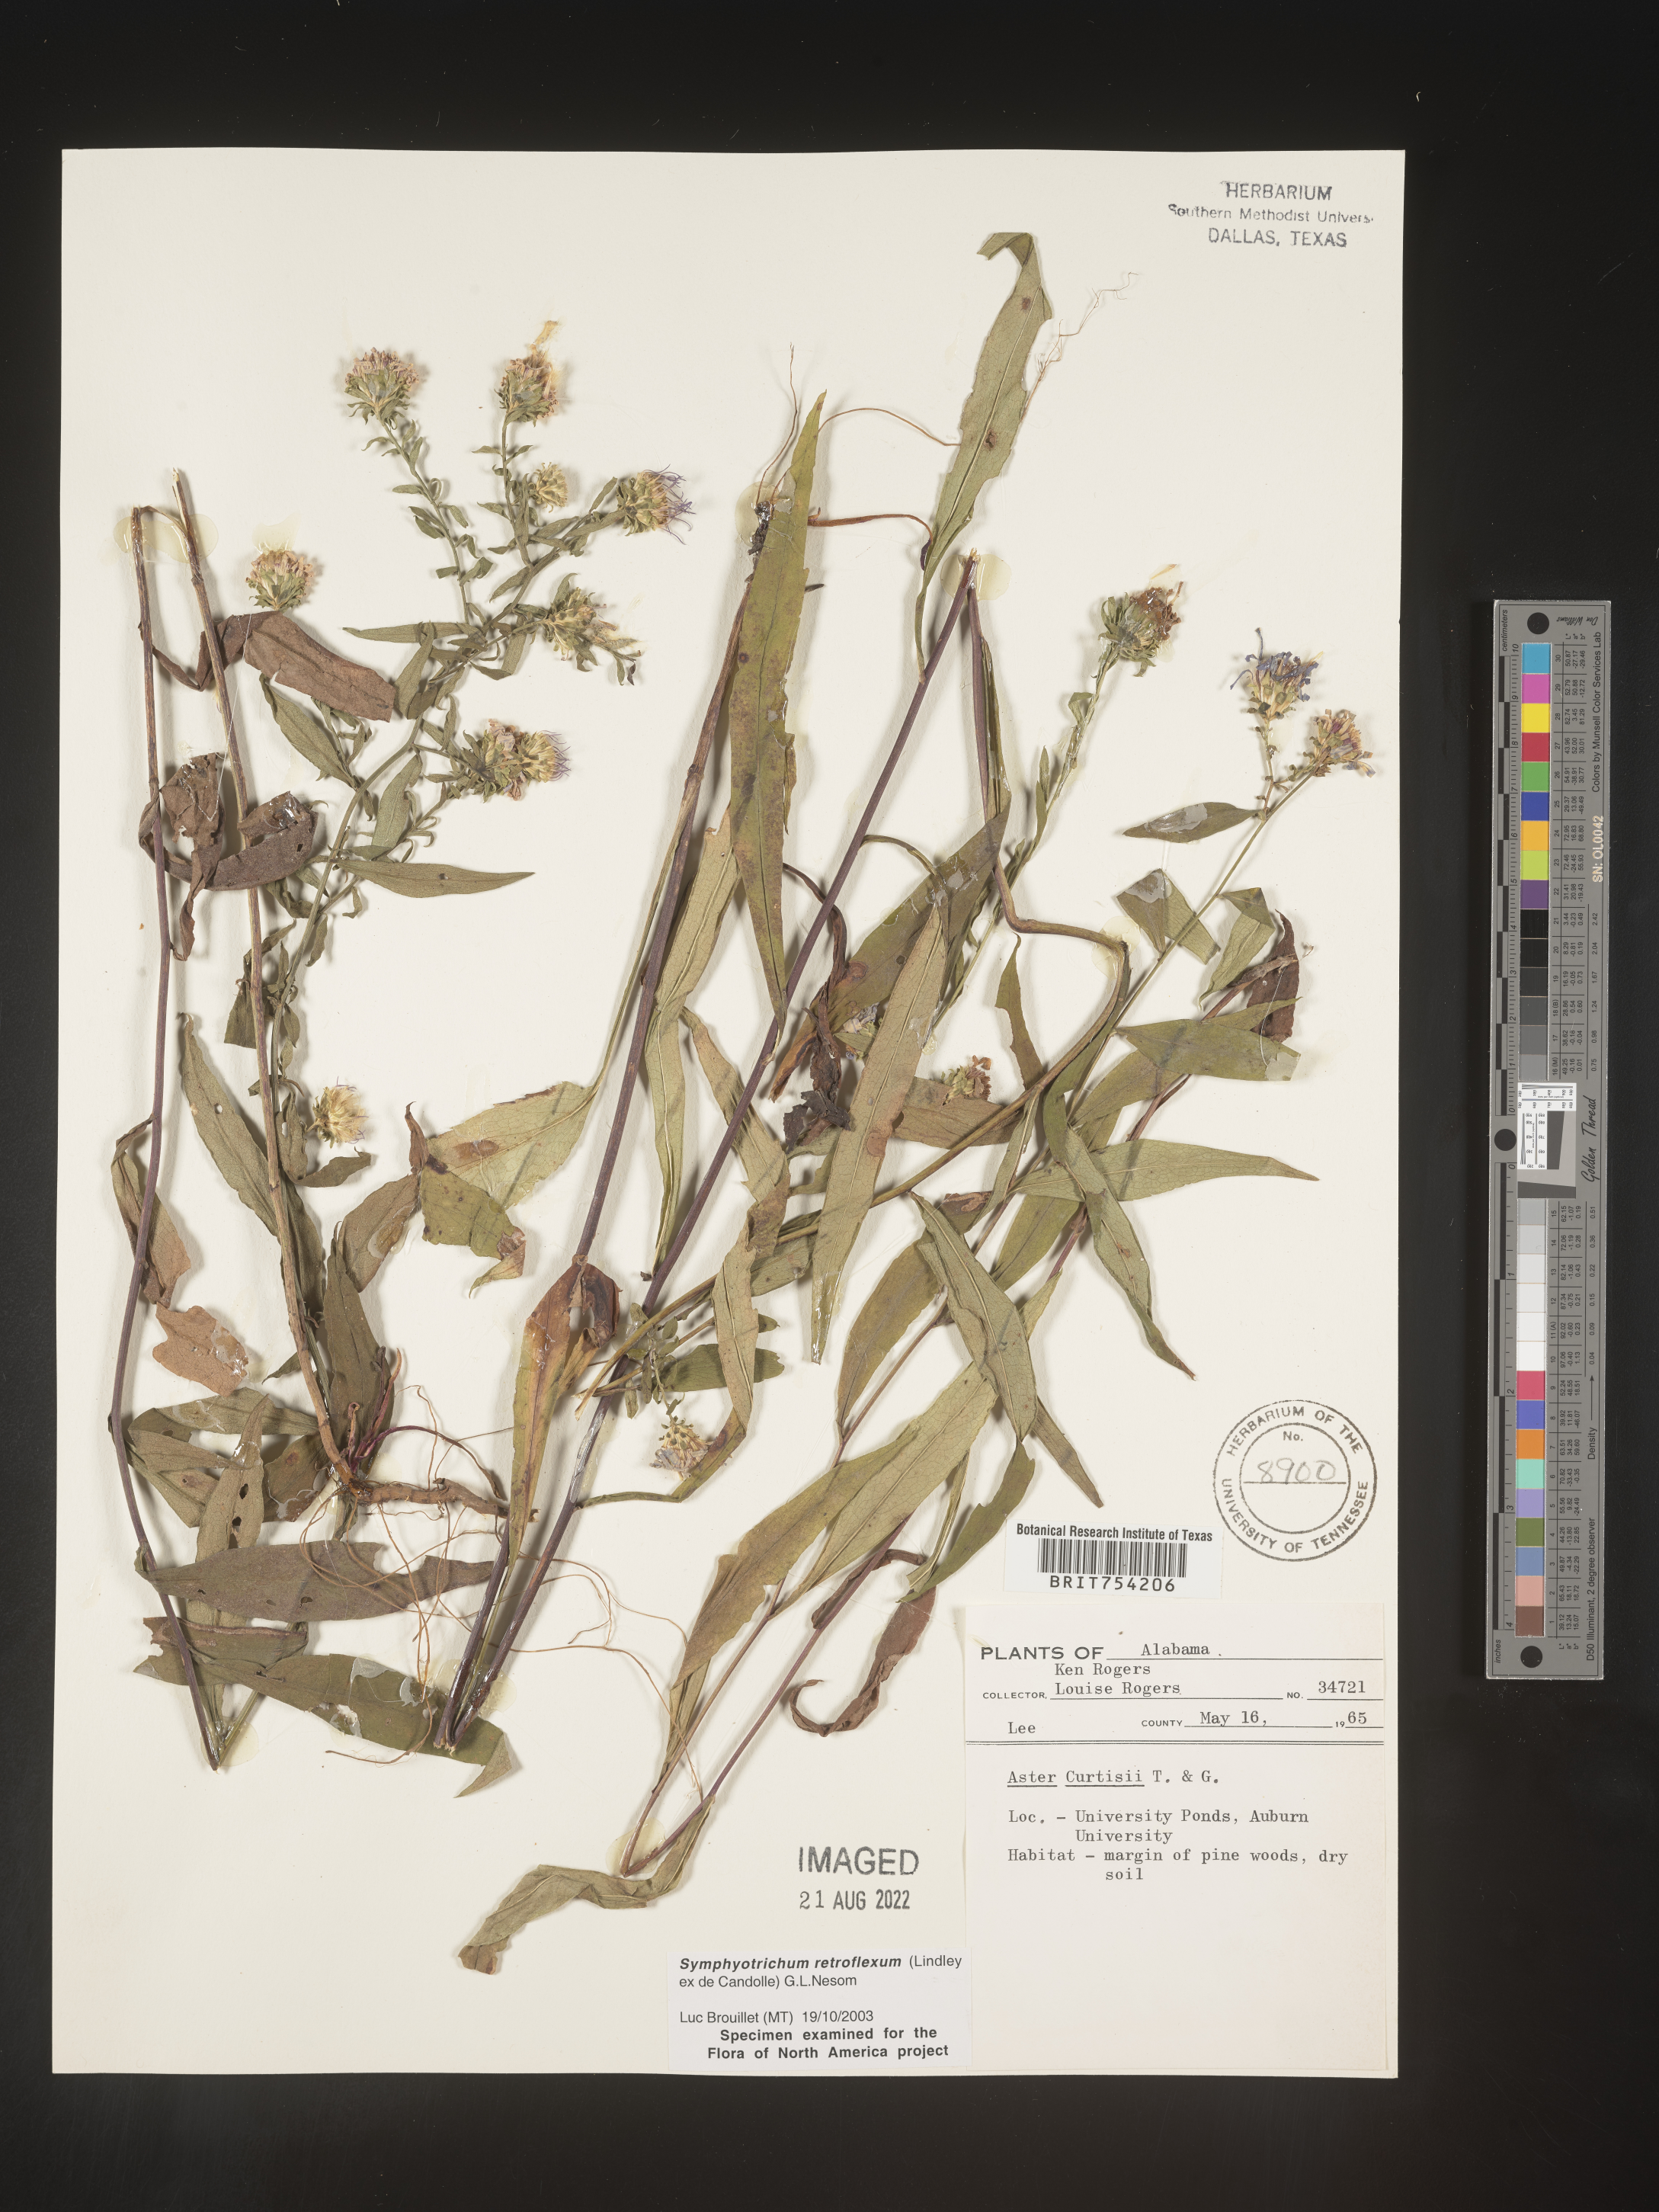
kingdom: Plantae
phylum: Tracheophyta
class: Magnoliopsida
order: Asterales
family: Asteraceae
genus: Symphyotrichum
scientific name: Symphyotrichum retroflexum
